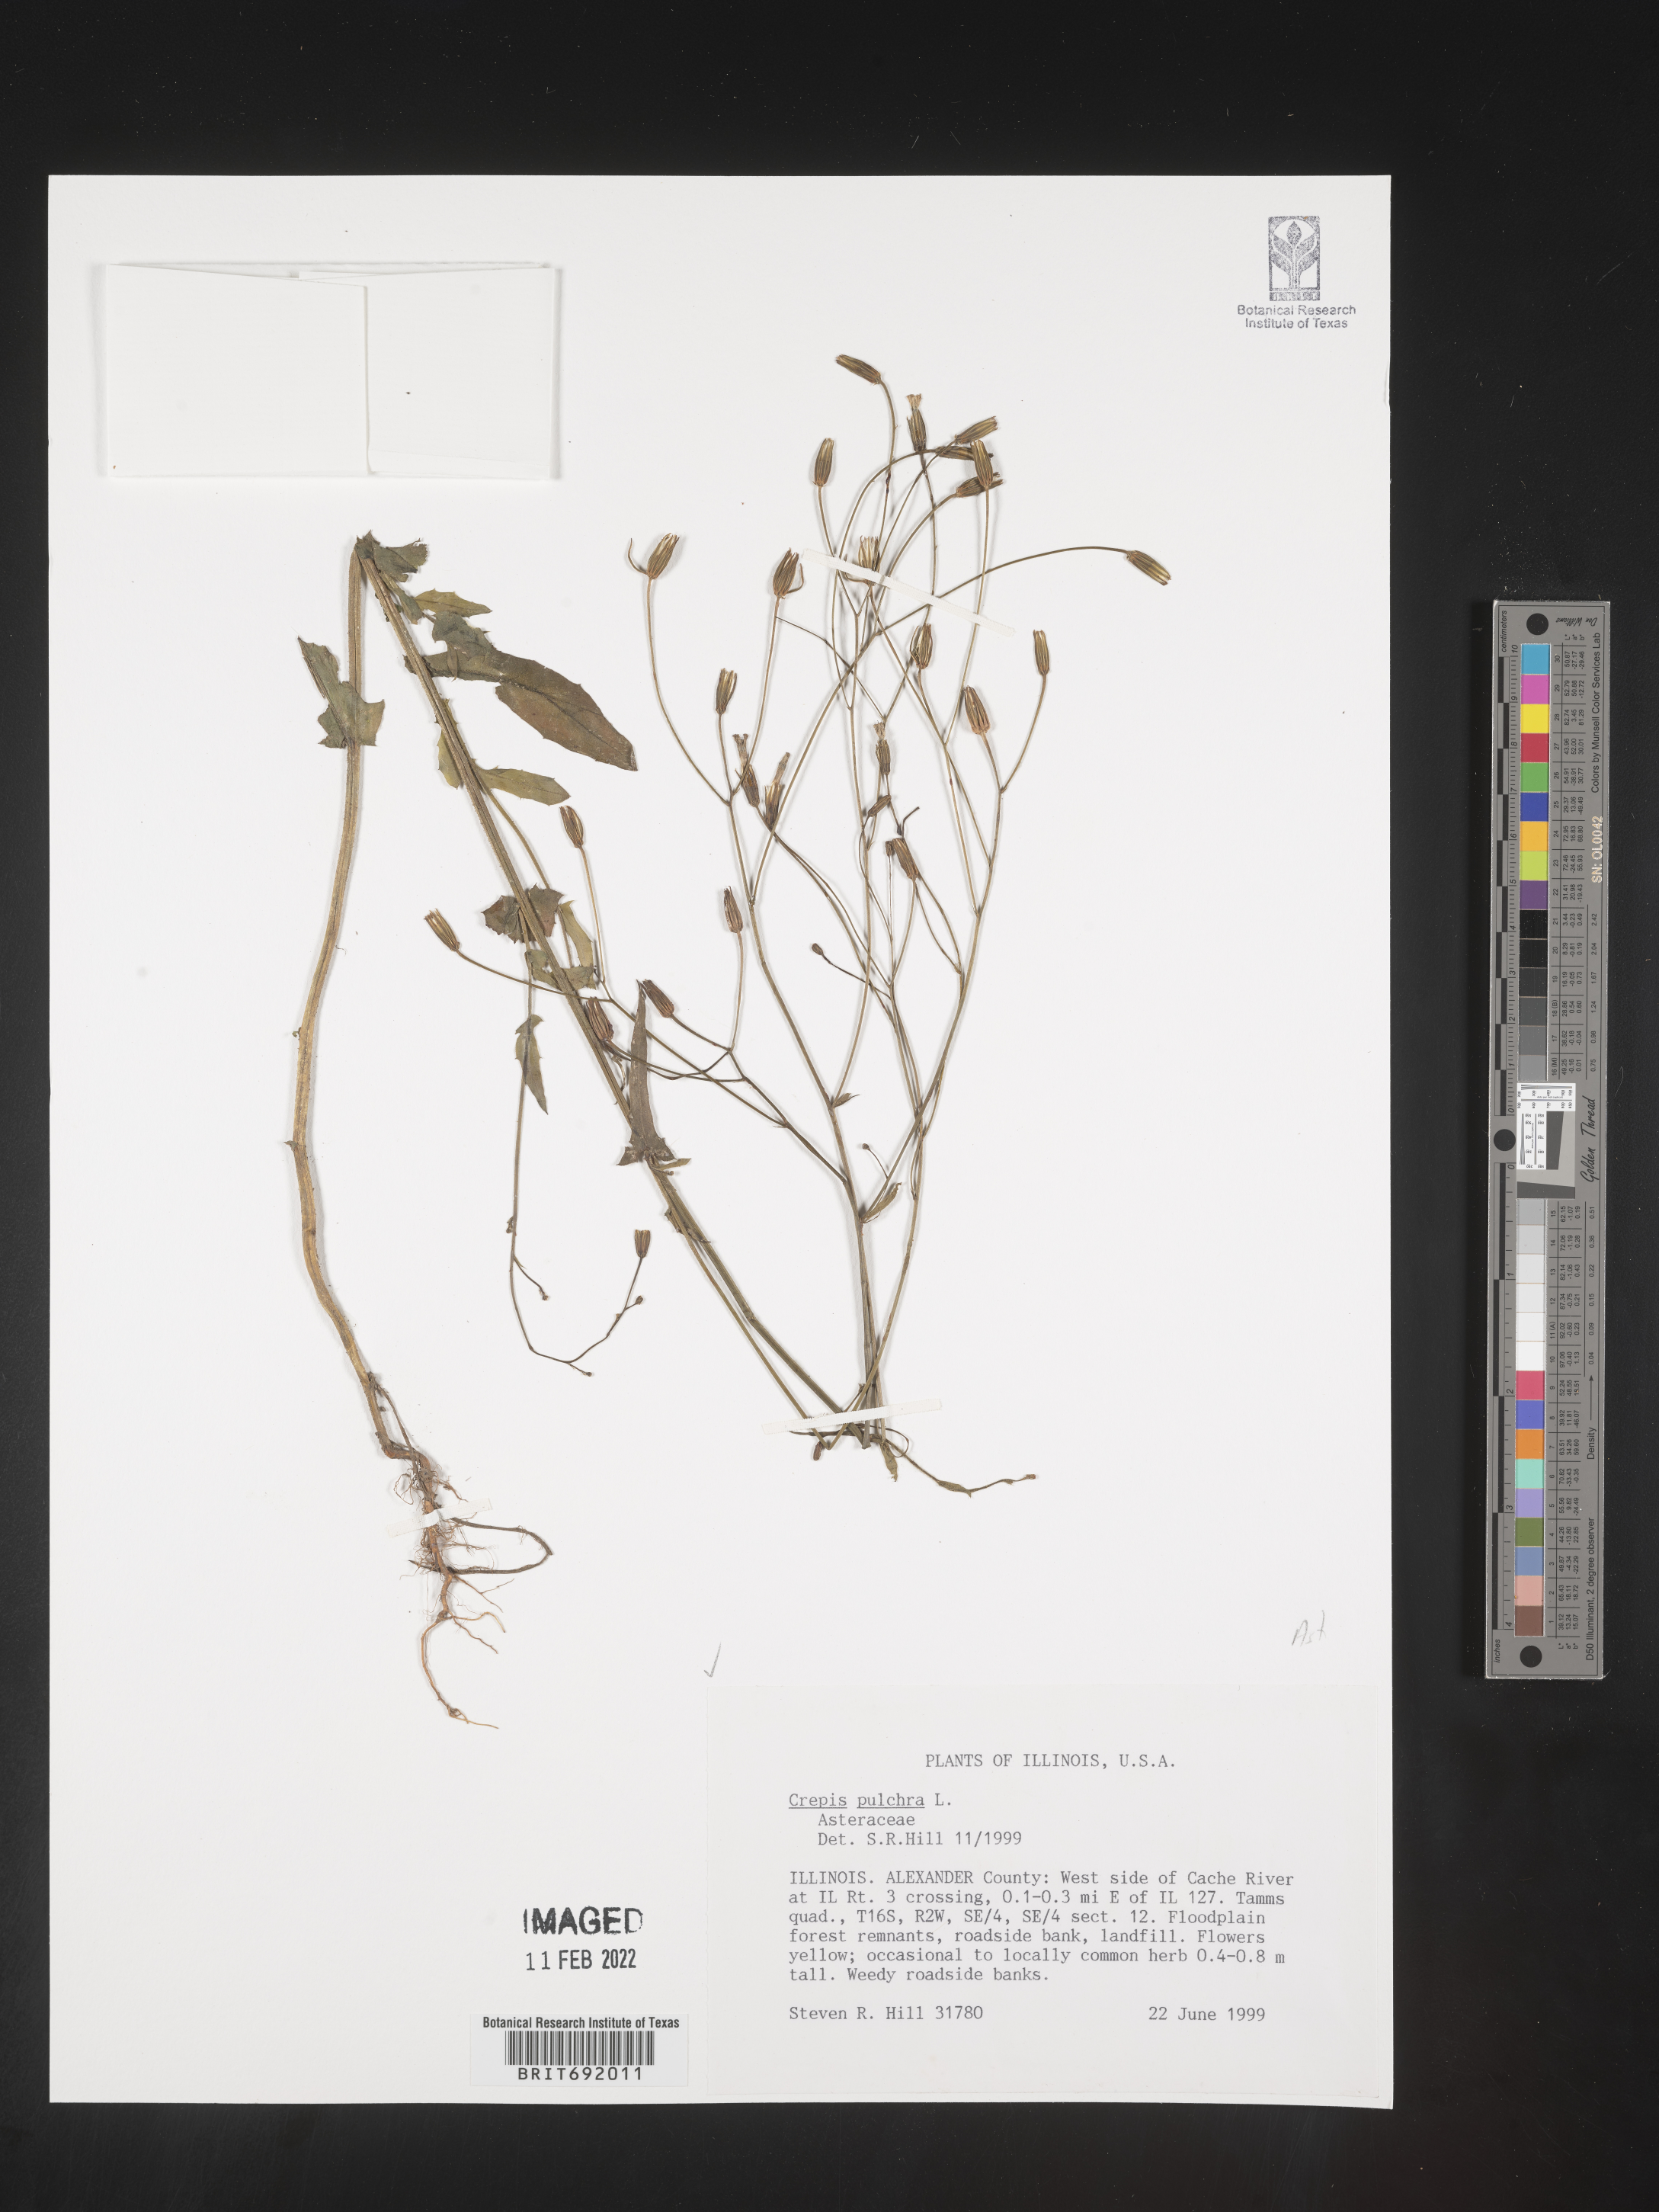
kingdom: Plantae
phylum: Tracheophyta
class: Magnoliopsida
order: Asterales
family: Asteraceae
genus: Crepis
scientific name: Crepis pulchra
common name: Hawk's-beard
